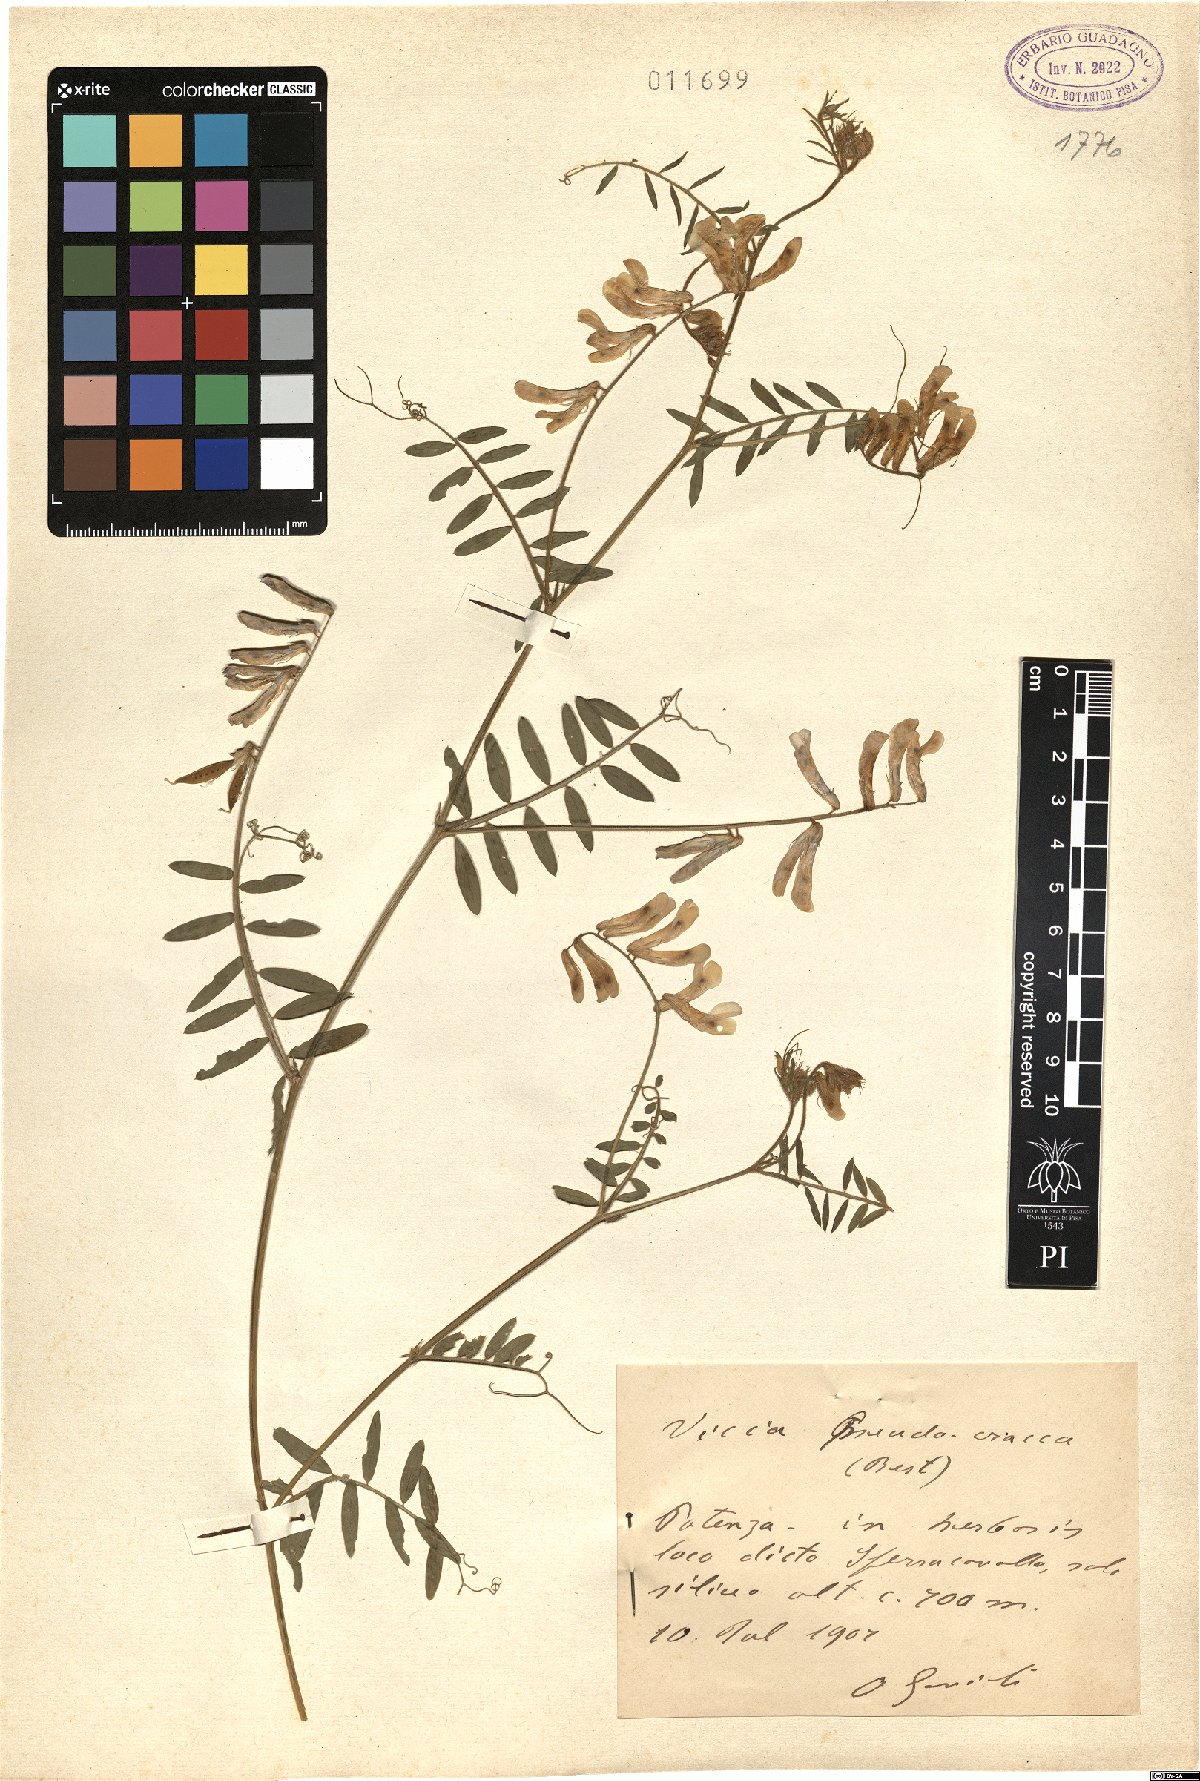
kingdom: Plantae
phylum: Tracheophyta
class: Magnoliopsida
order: Fabales
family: Fabaceae
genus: Vicia
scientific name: Vicia villosa
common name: Fodder vetch
